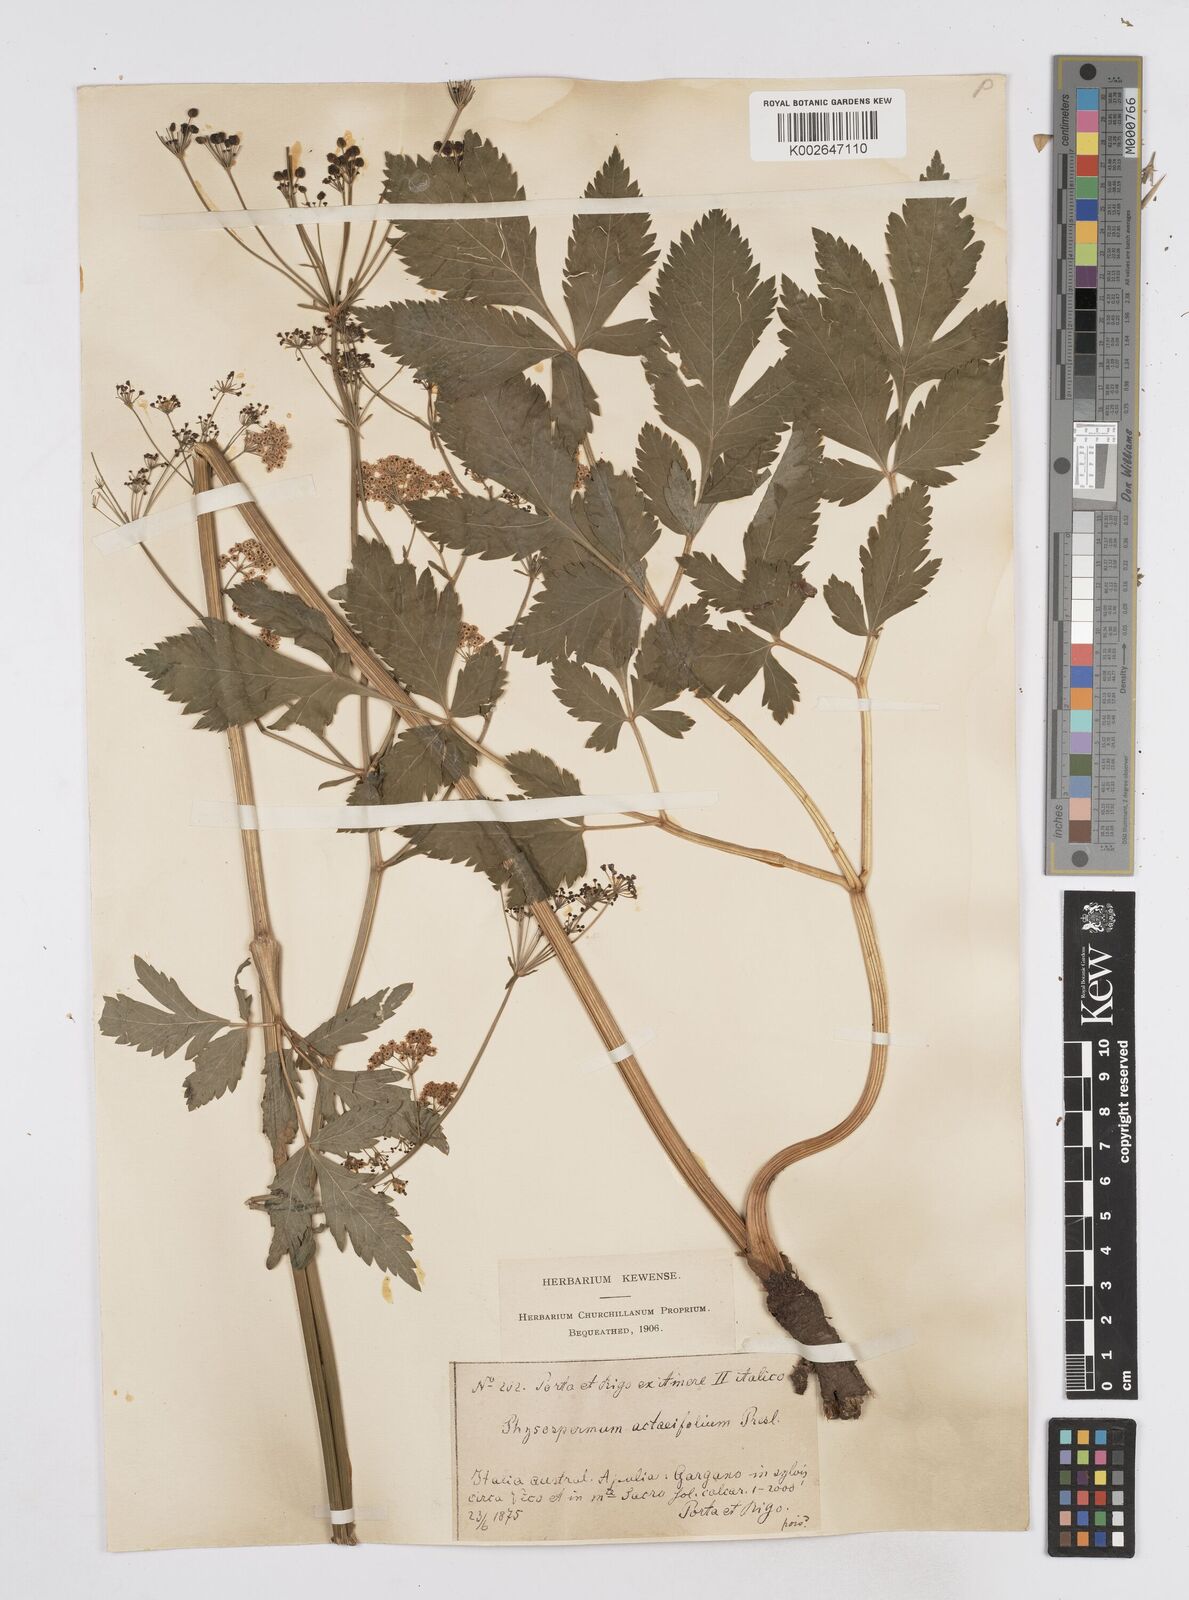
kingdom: Plantae
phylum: Tracheophyta
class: Magnoliopsida
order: Apiales
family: Apiaceae
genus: Physospermum
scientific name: Physospermum verticillatum
